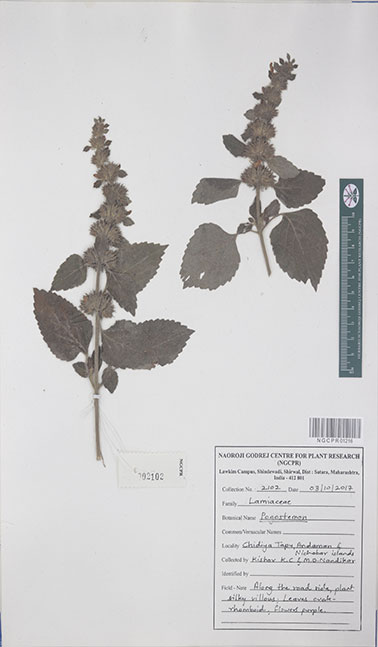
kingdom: Plantae
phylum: Tracheophyta
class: Magnoliopsida
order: Lamiales
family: Lamiaceae
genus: Pogostemon
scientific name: Pogostemon
